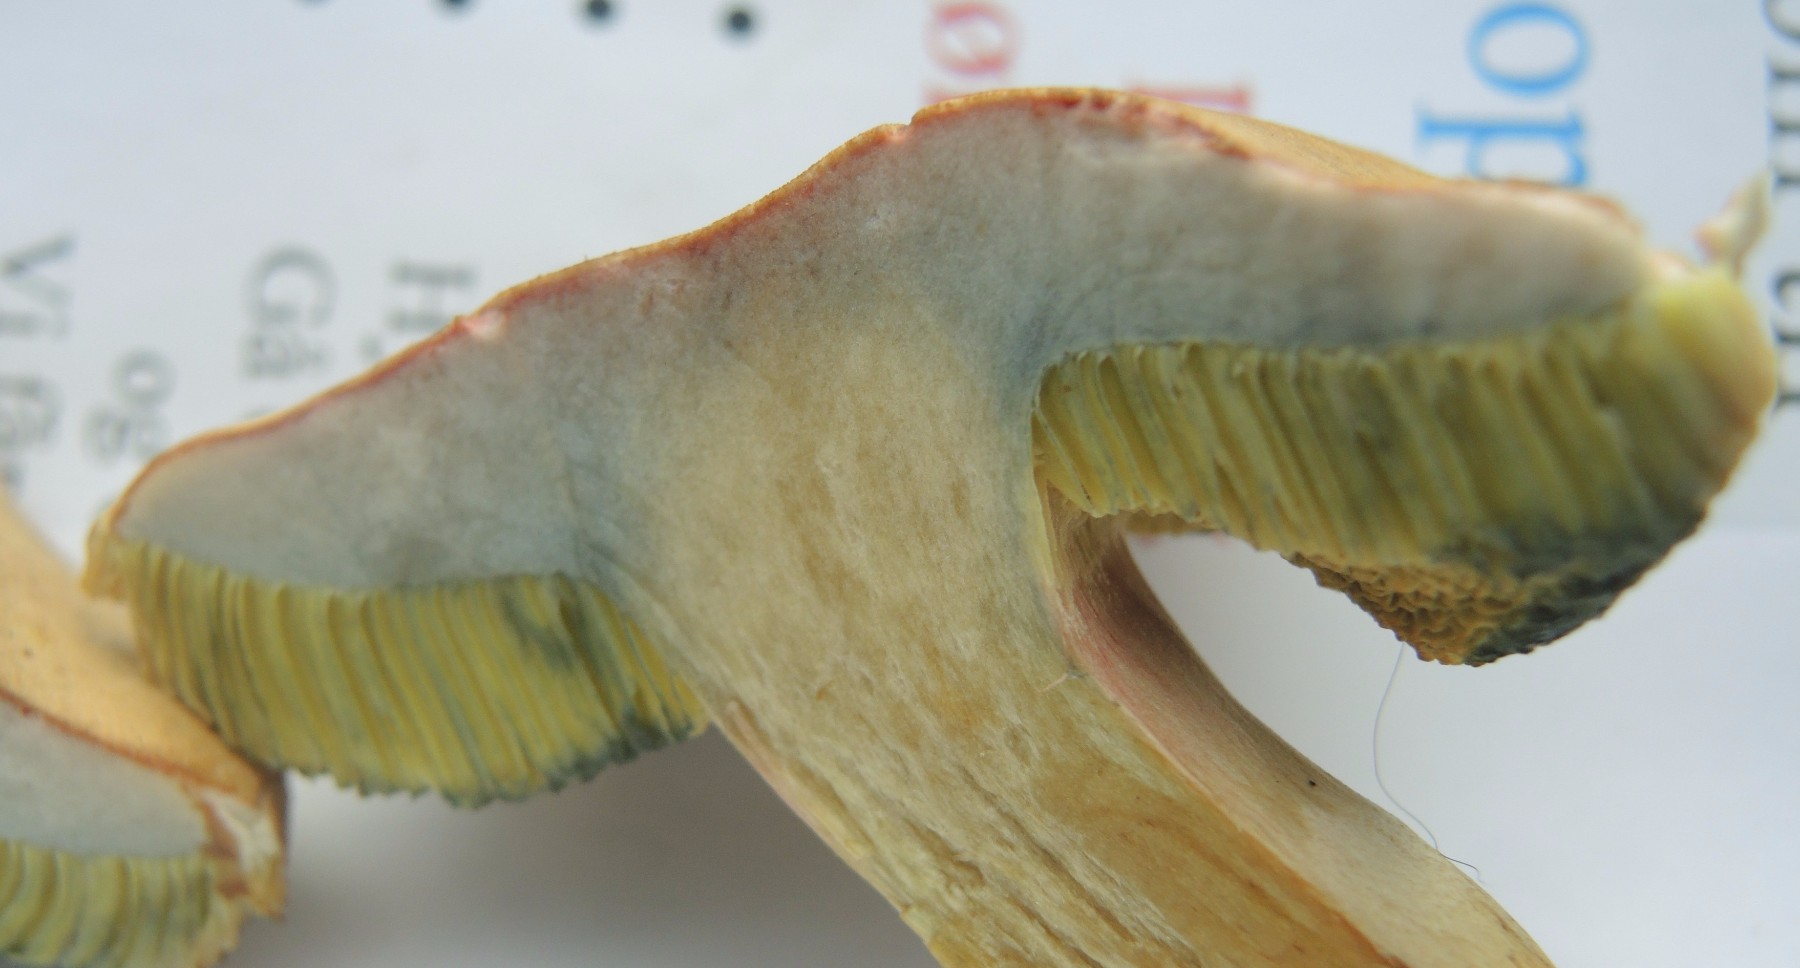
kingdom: Fungi
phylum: Basidiomycota
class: Agaricomycetes
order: Boletales
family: Boletaceae
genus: Hortiboletus
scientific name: Hortiboletus bubalinus
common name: aurora-rørhat
